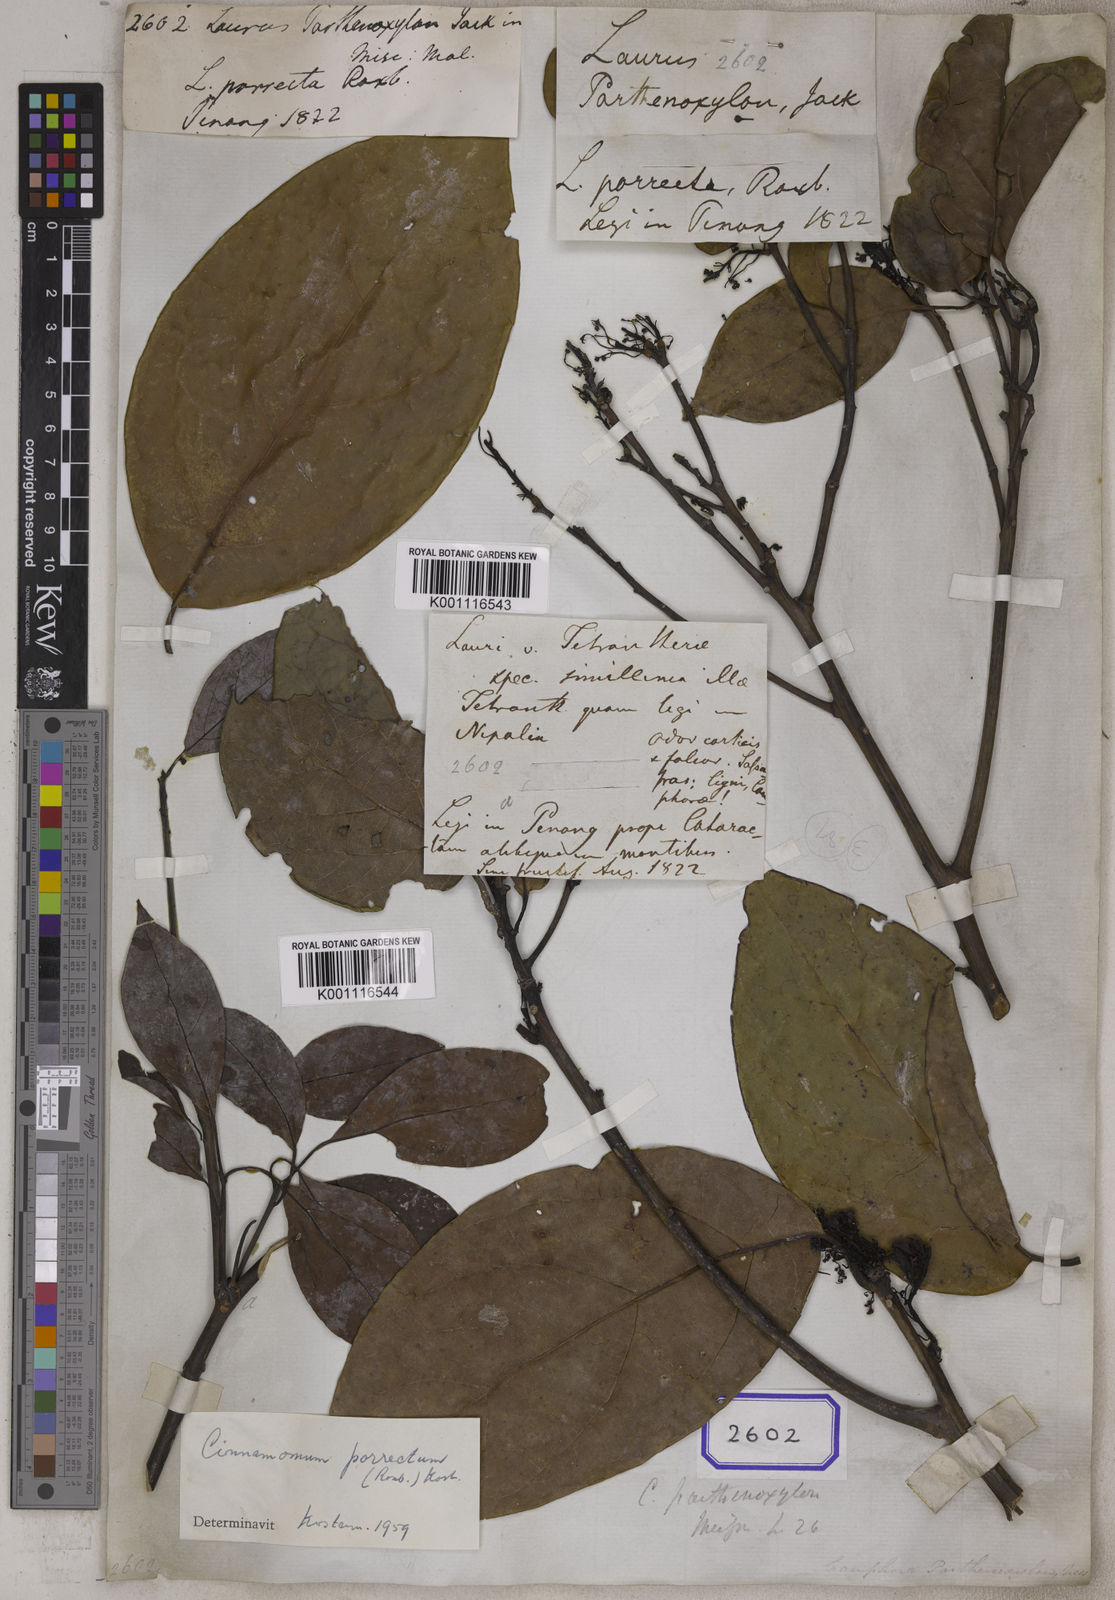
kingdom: Plantae
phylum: Tracheophyta
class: Magnoliopsida
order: Laurales
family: Lauraceae
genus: Cinnamomum
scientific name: Cinnamomum parthenoxylon
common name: Martaban camphor wood
